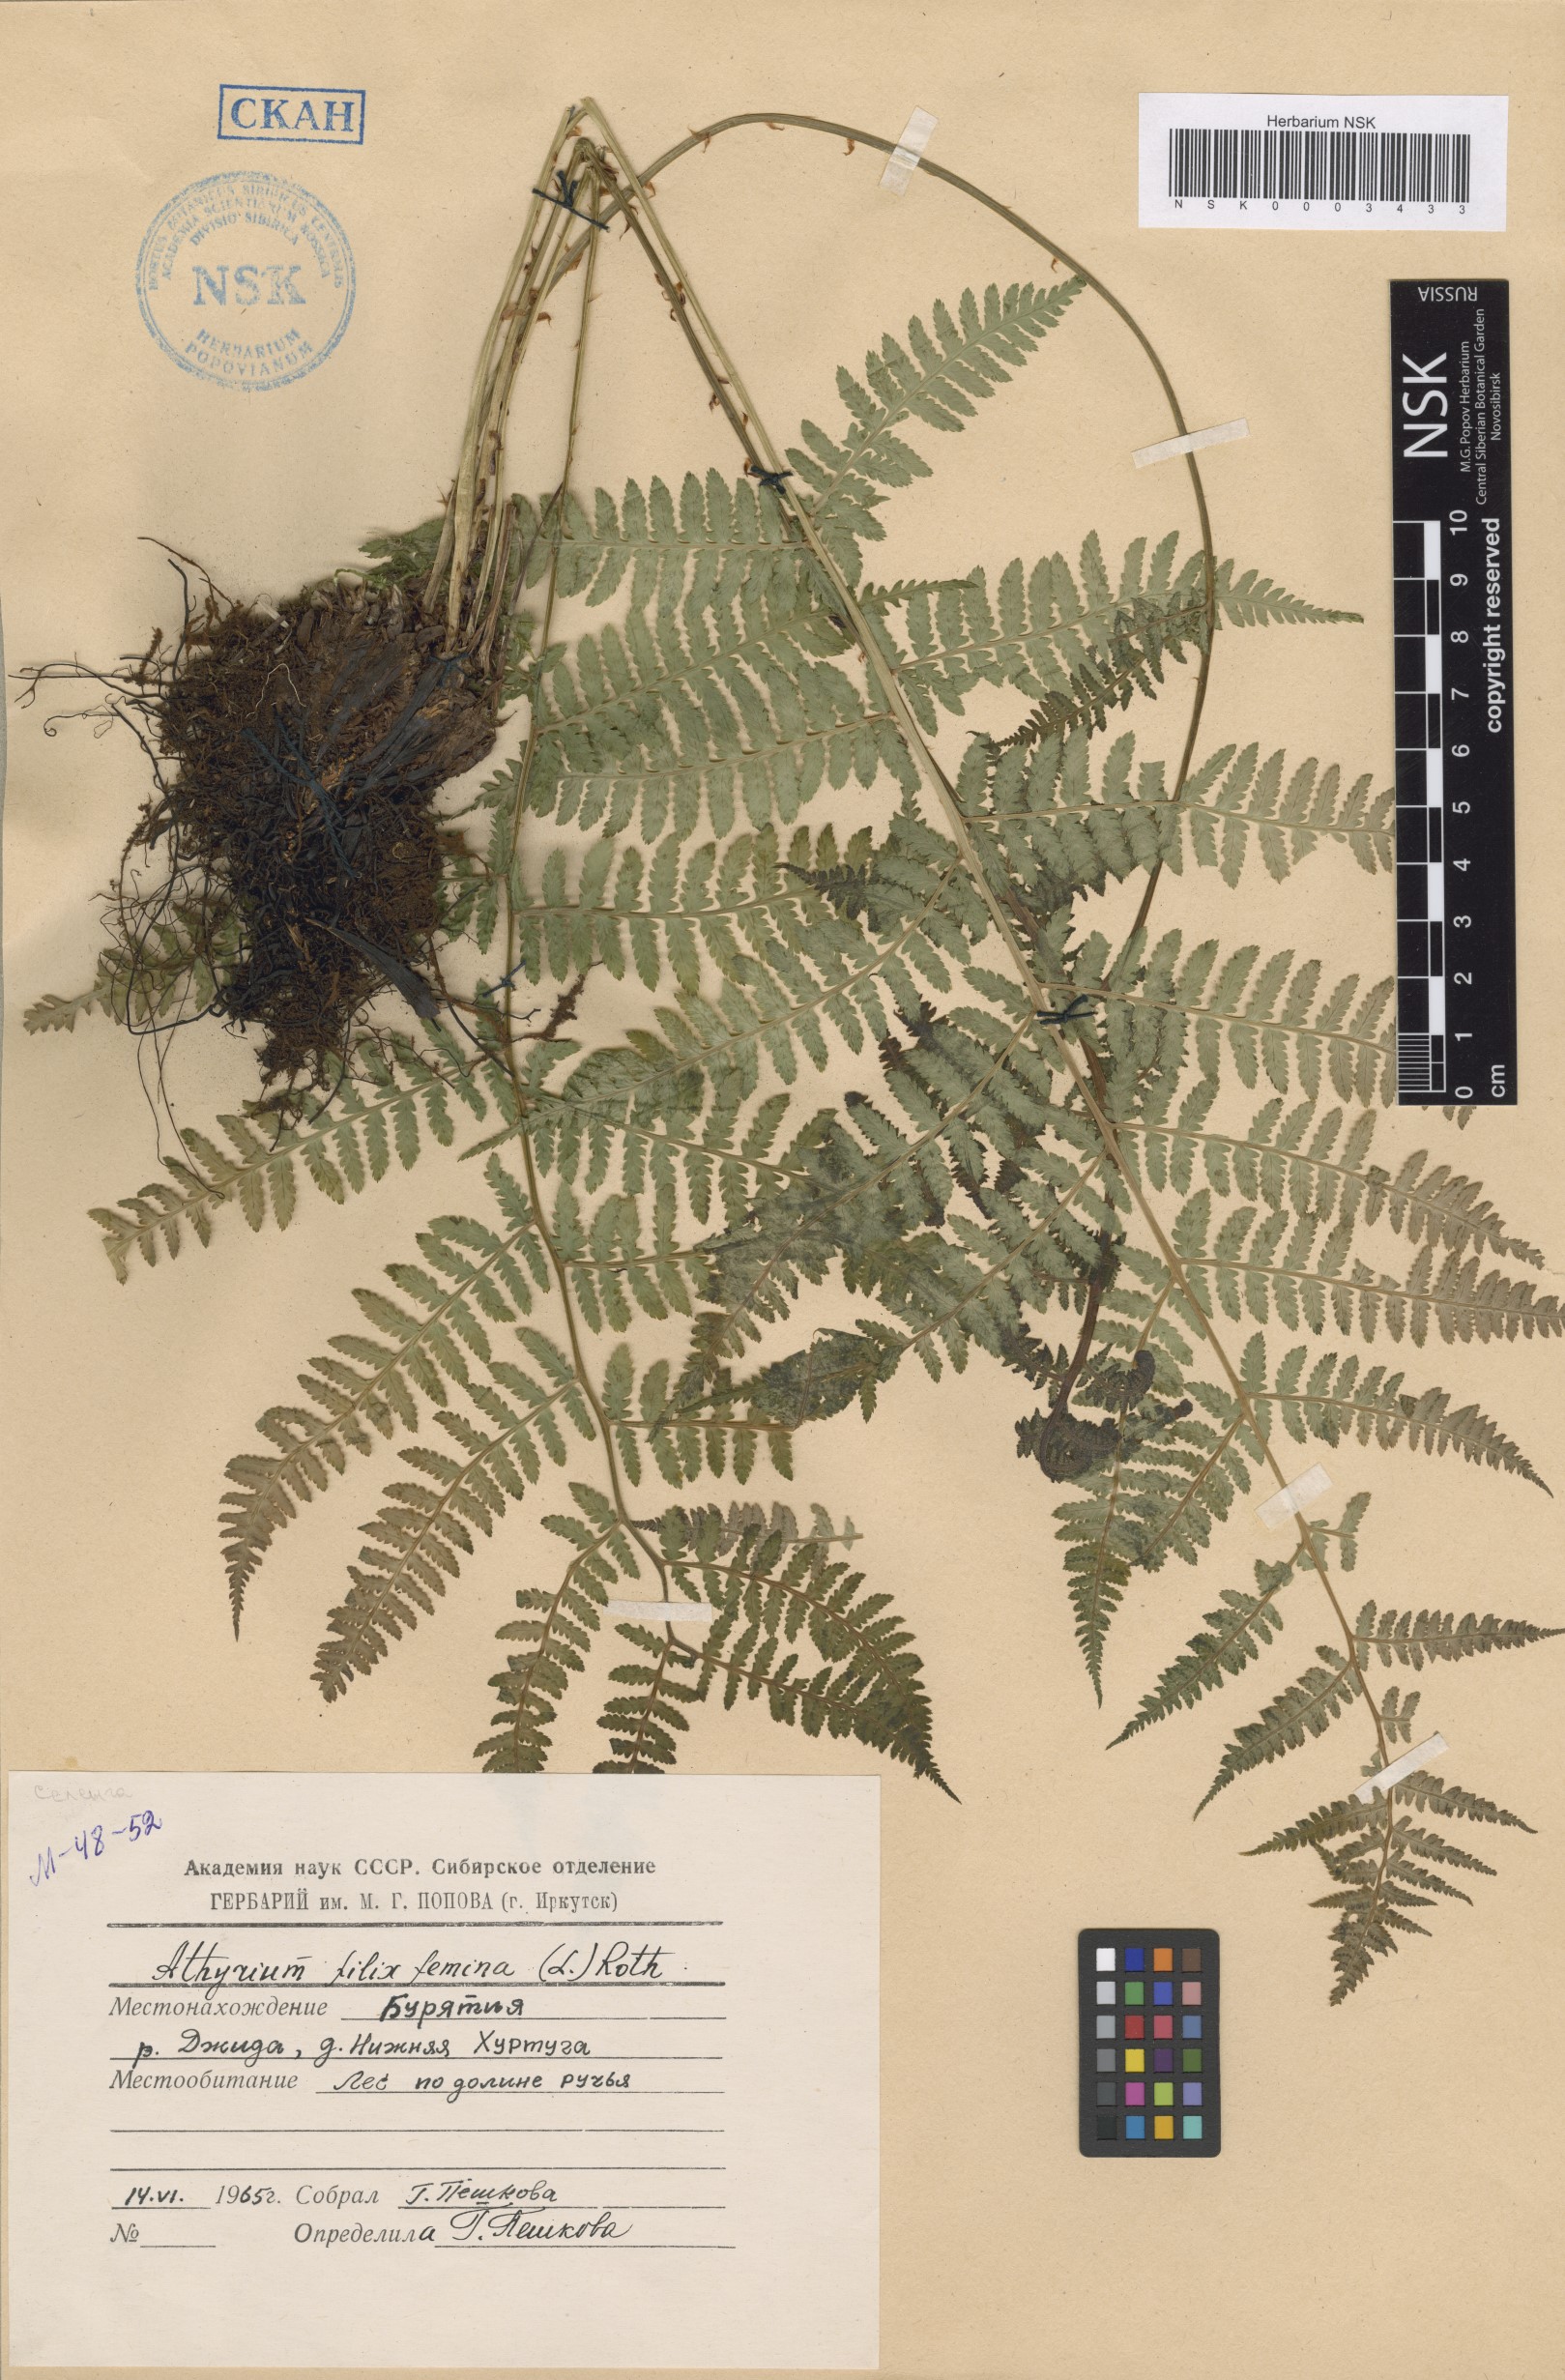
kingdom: Plantae
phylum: Tracheophyta
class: Polypodiopsida
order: Polypodiales
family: Athyriaceae
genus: Athyrium
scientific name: Athyrium filix-femina
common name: Lady fern
